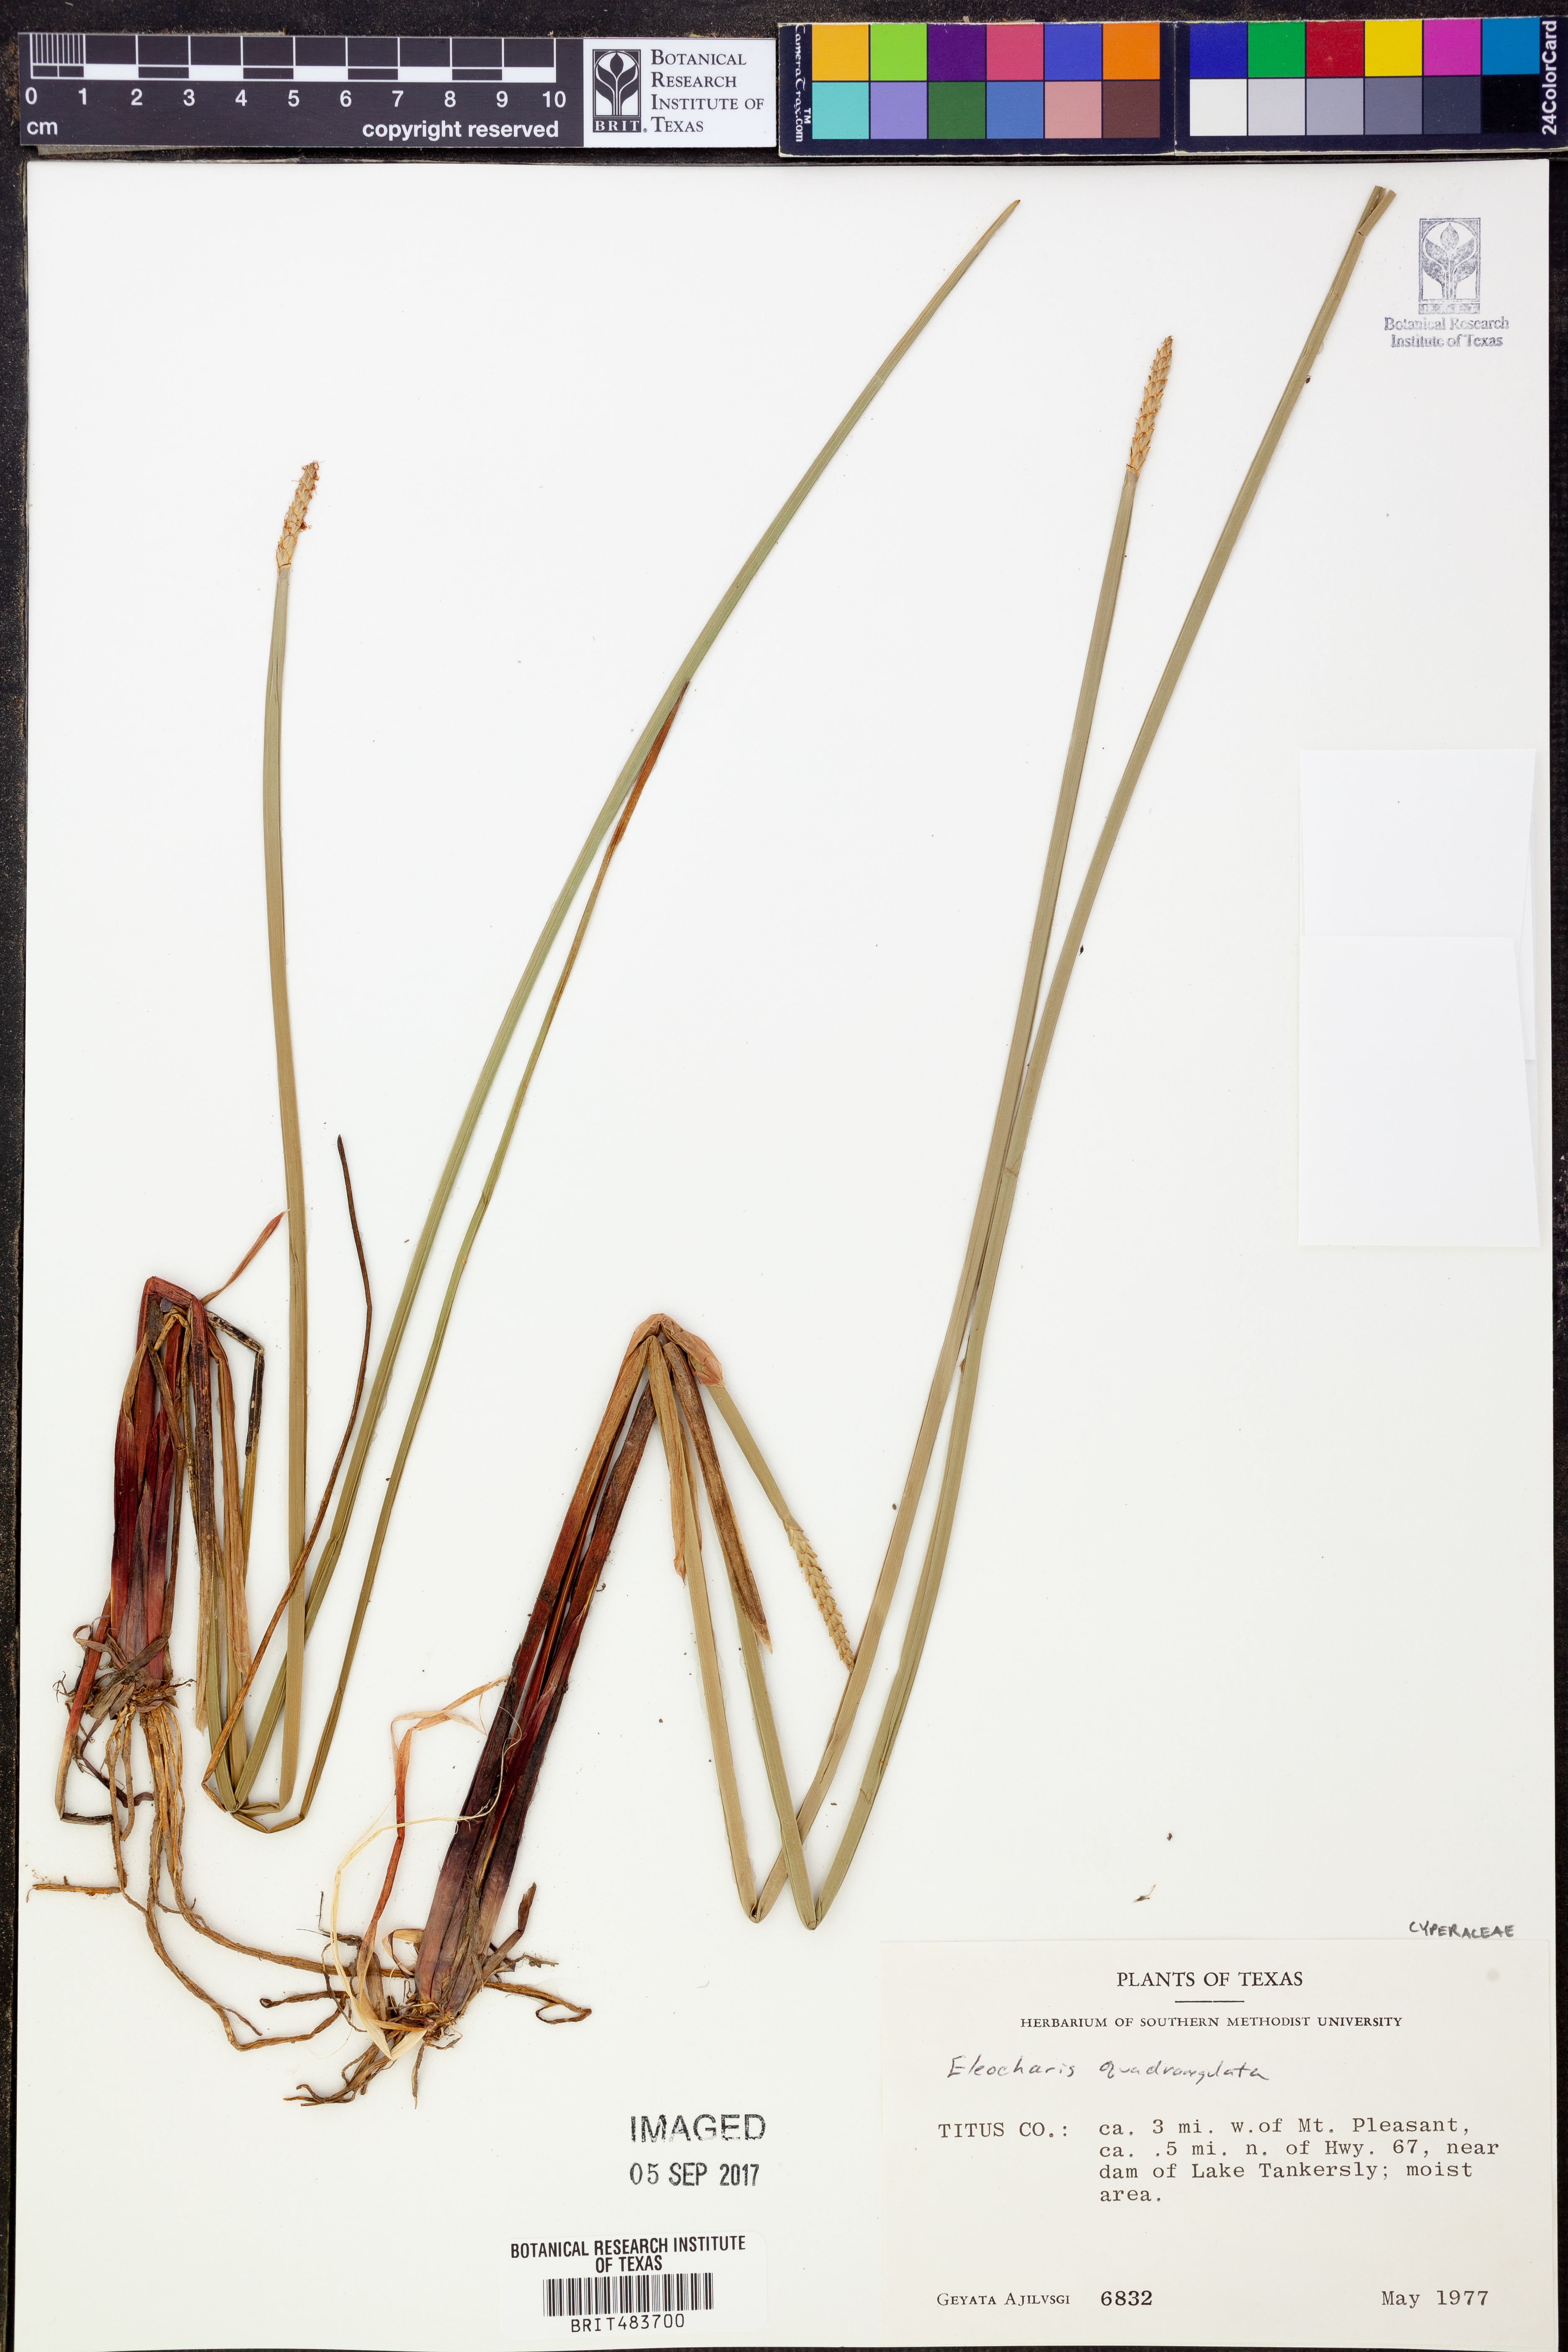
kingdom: Plantae
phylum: Tracheophyta
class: Liliopsida
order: Poales
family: Cyperaceae
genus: Eleocharis
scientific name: Eleocharis quadrangulata
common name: Square-stem spike-rush
